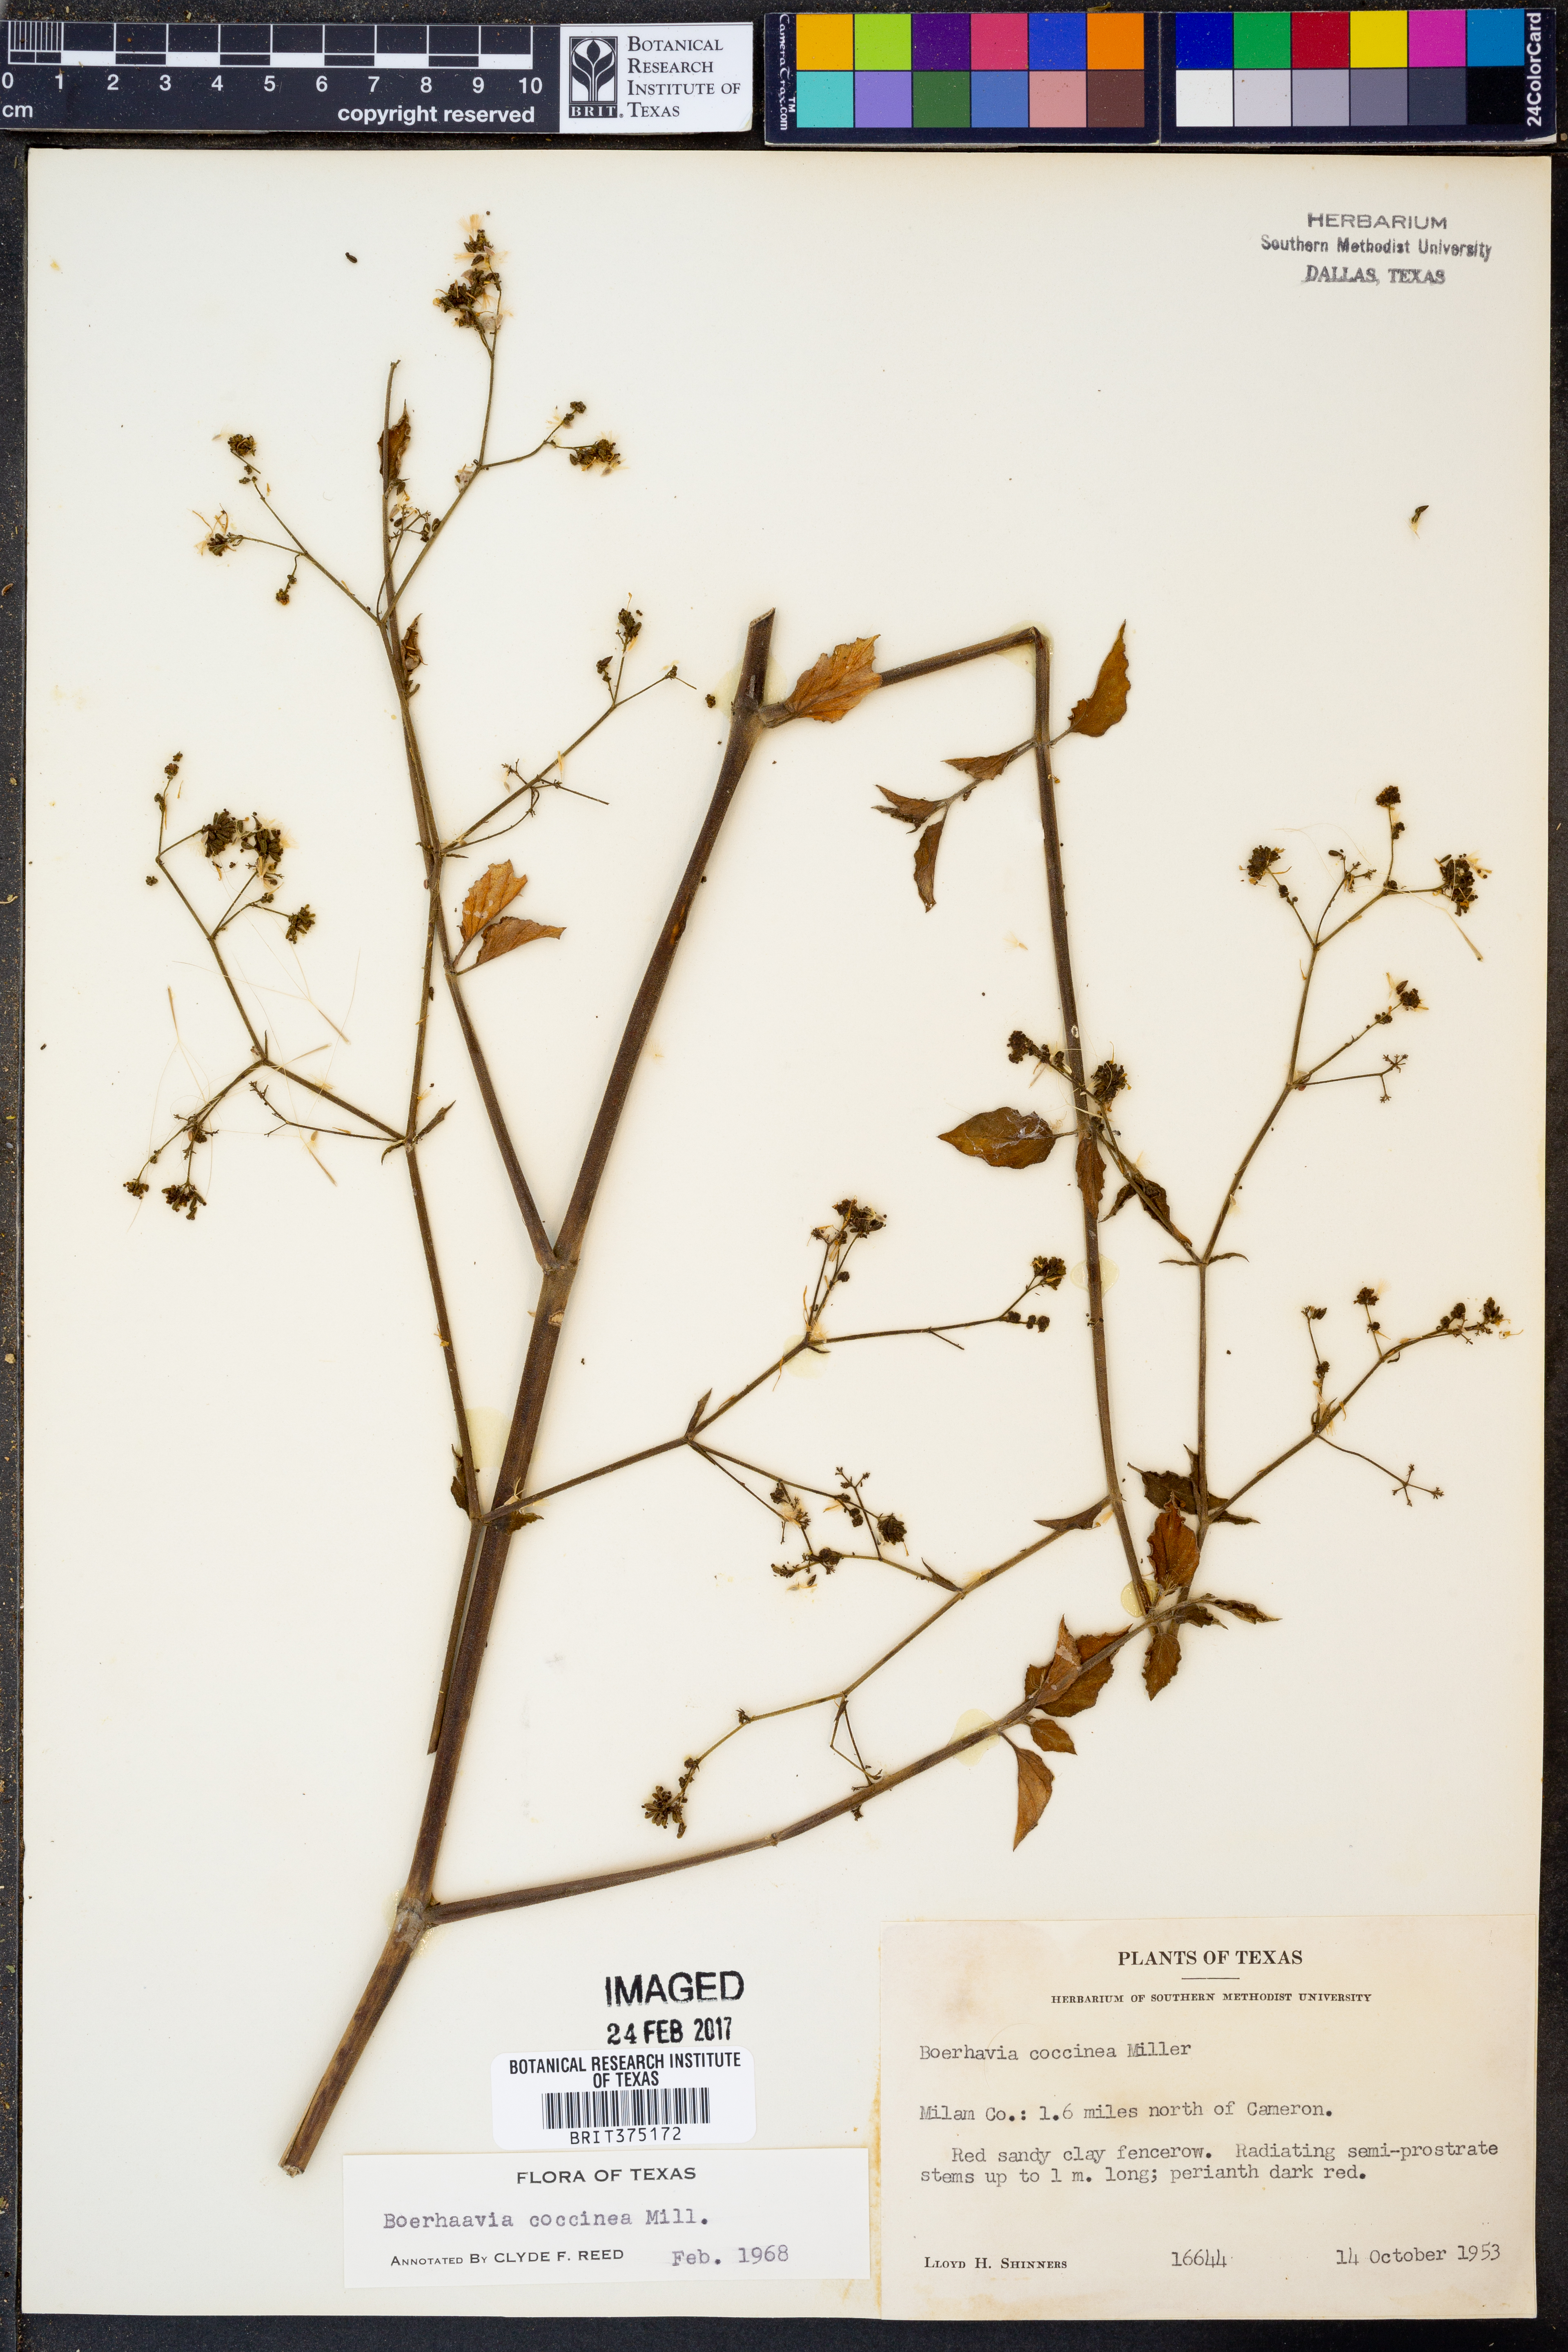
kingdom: Plantae
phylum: Tracheophyta
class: Magnoliopsida
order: Caryophyllales
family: Nyctaginaceae
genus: Boerhavia
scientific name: Boerhavia coccinea
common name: Scarlet spiderling
